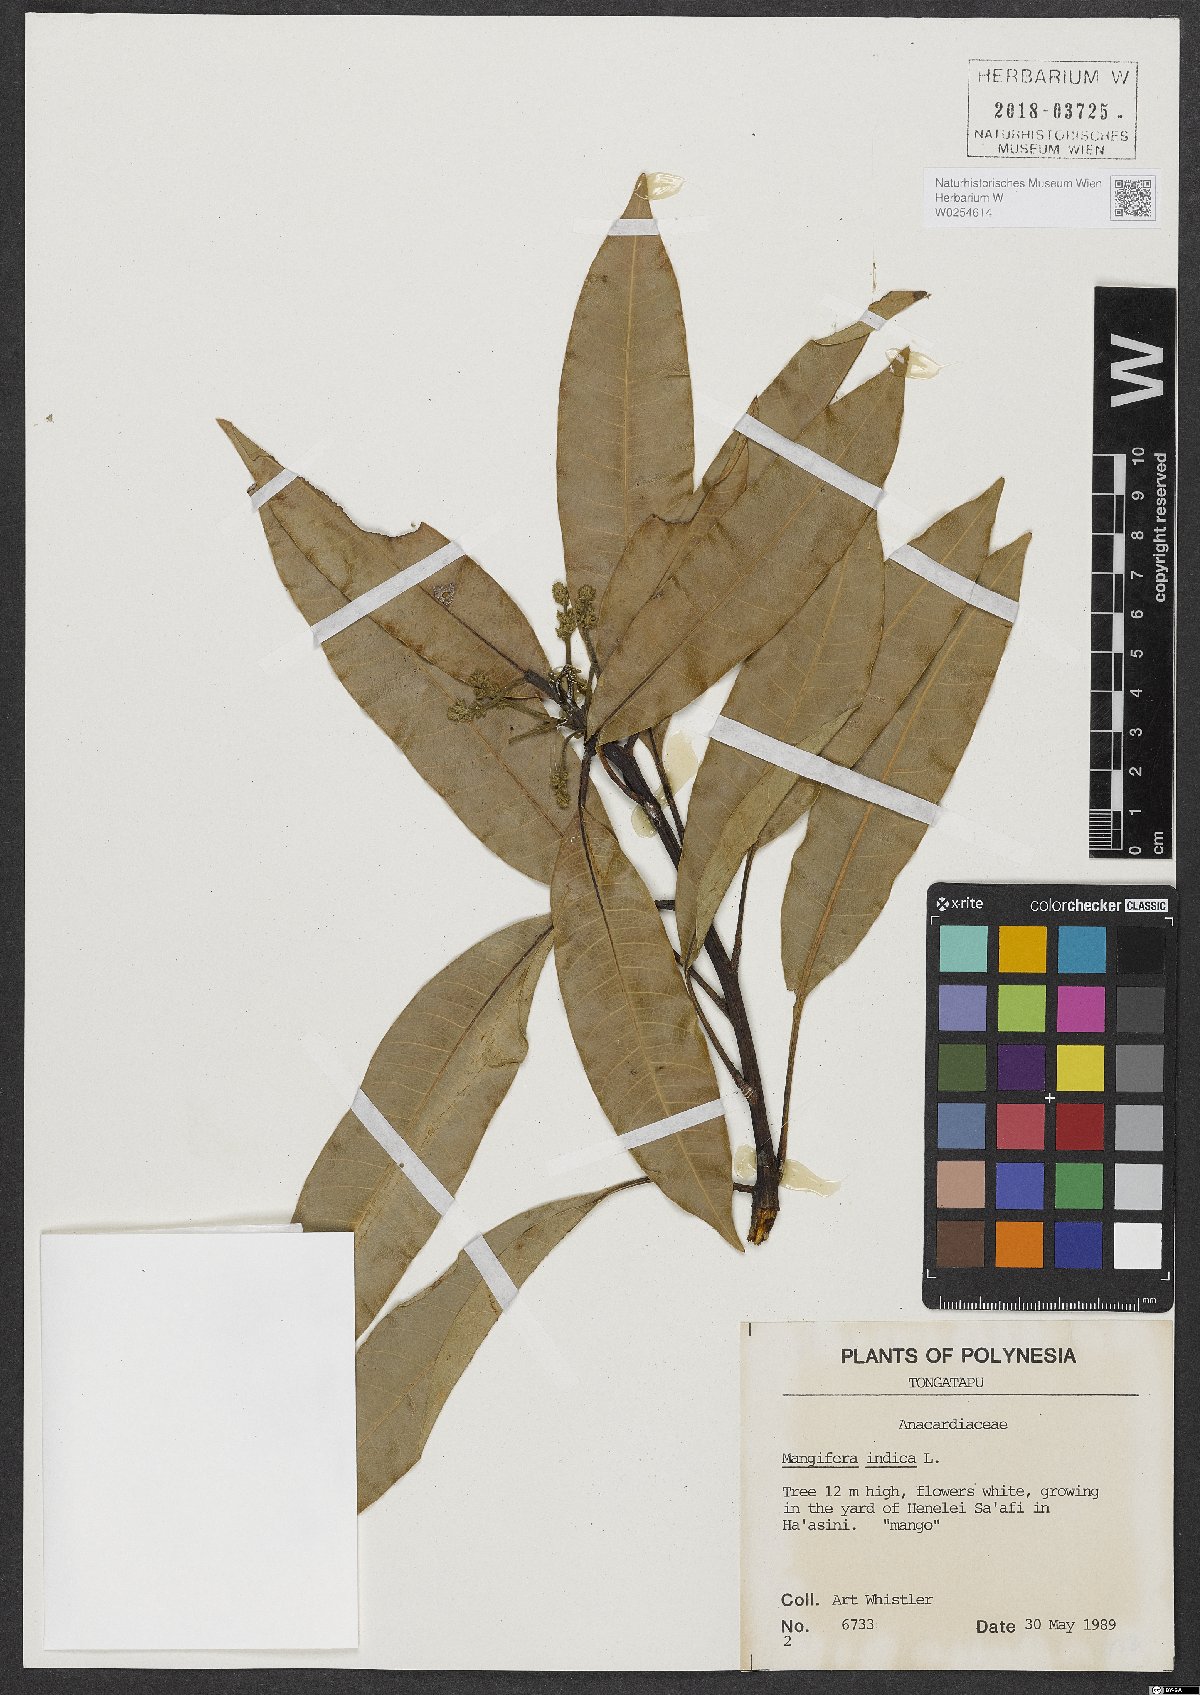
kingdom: Plantae
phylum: Tracheophyta
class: Magnoliopsida
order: Sapindales
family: Anacardiaceae
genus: Mangifera
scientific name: Mangifera indica
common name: Mango
